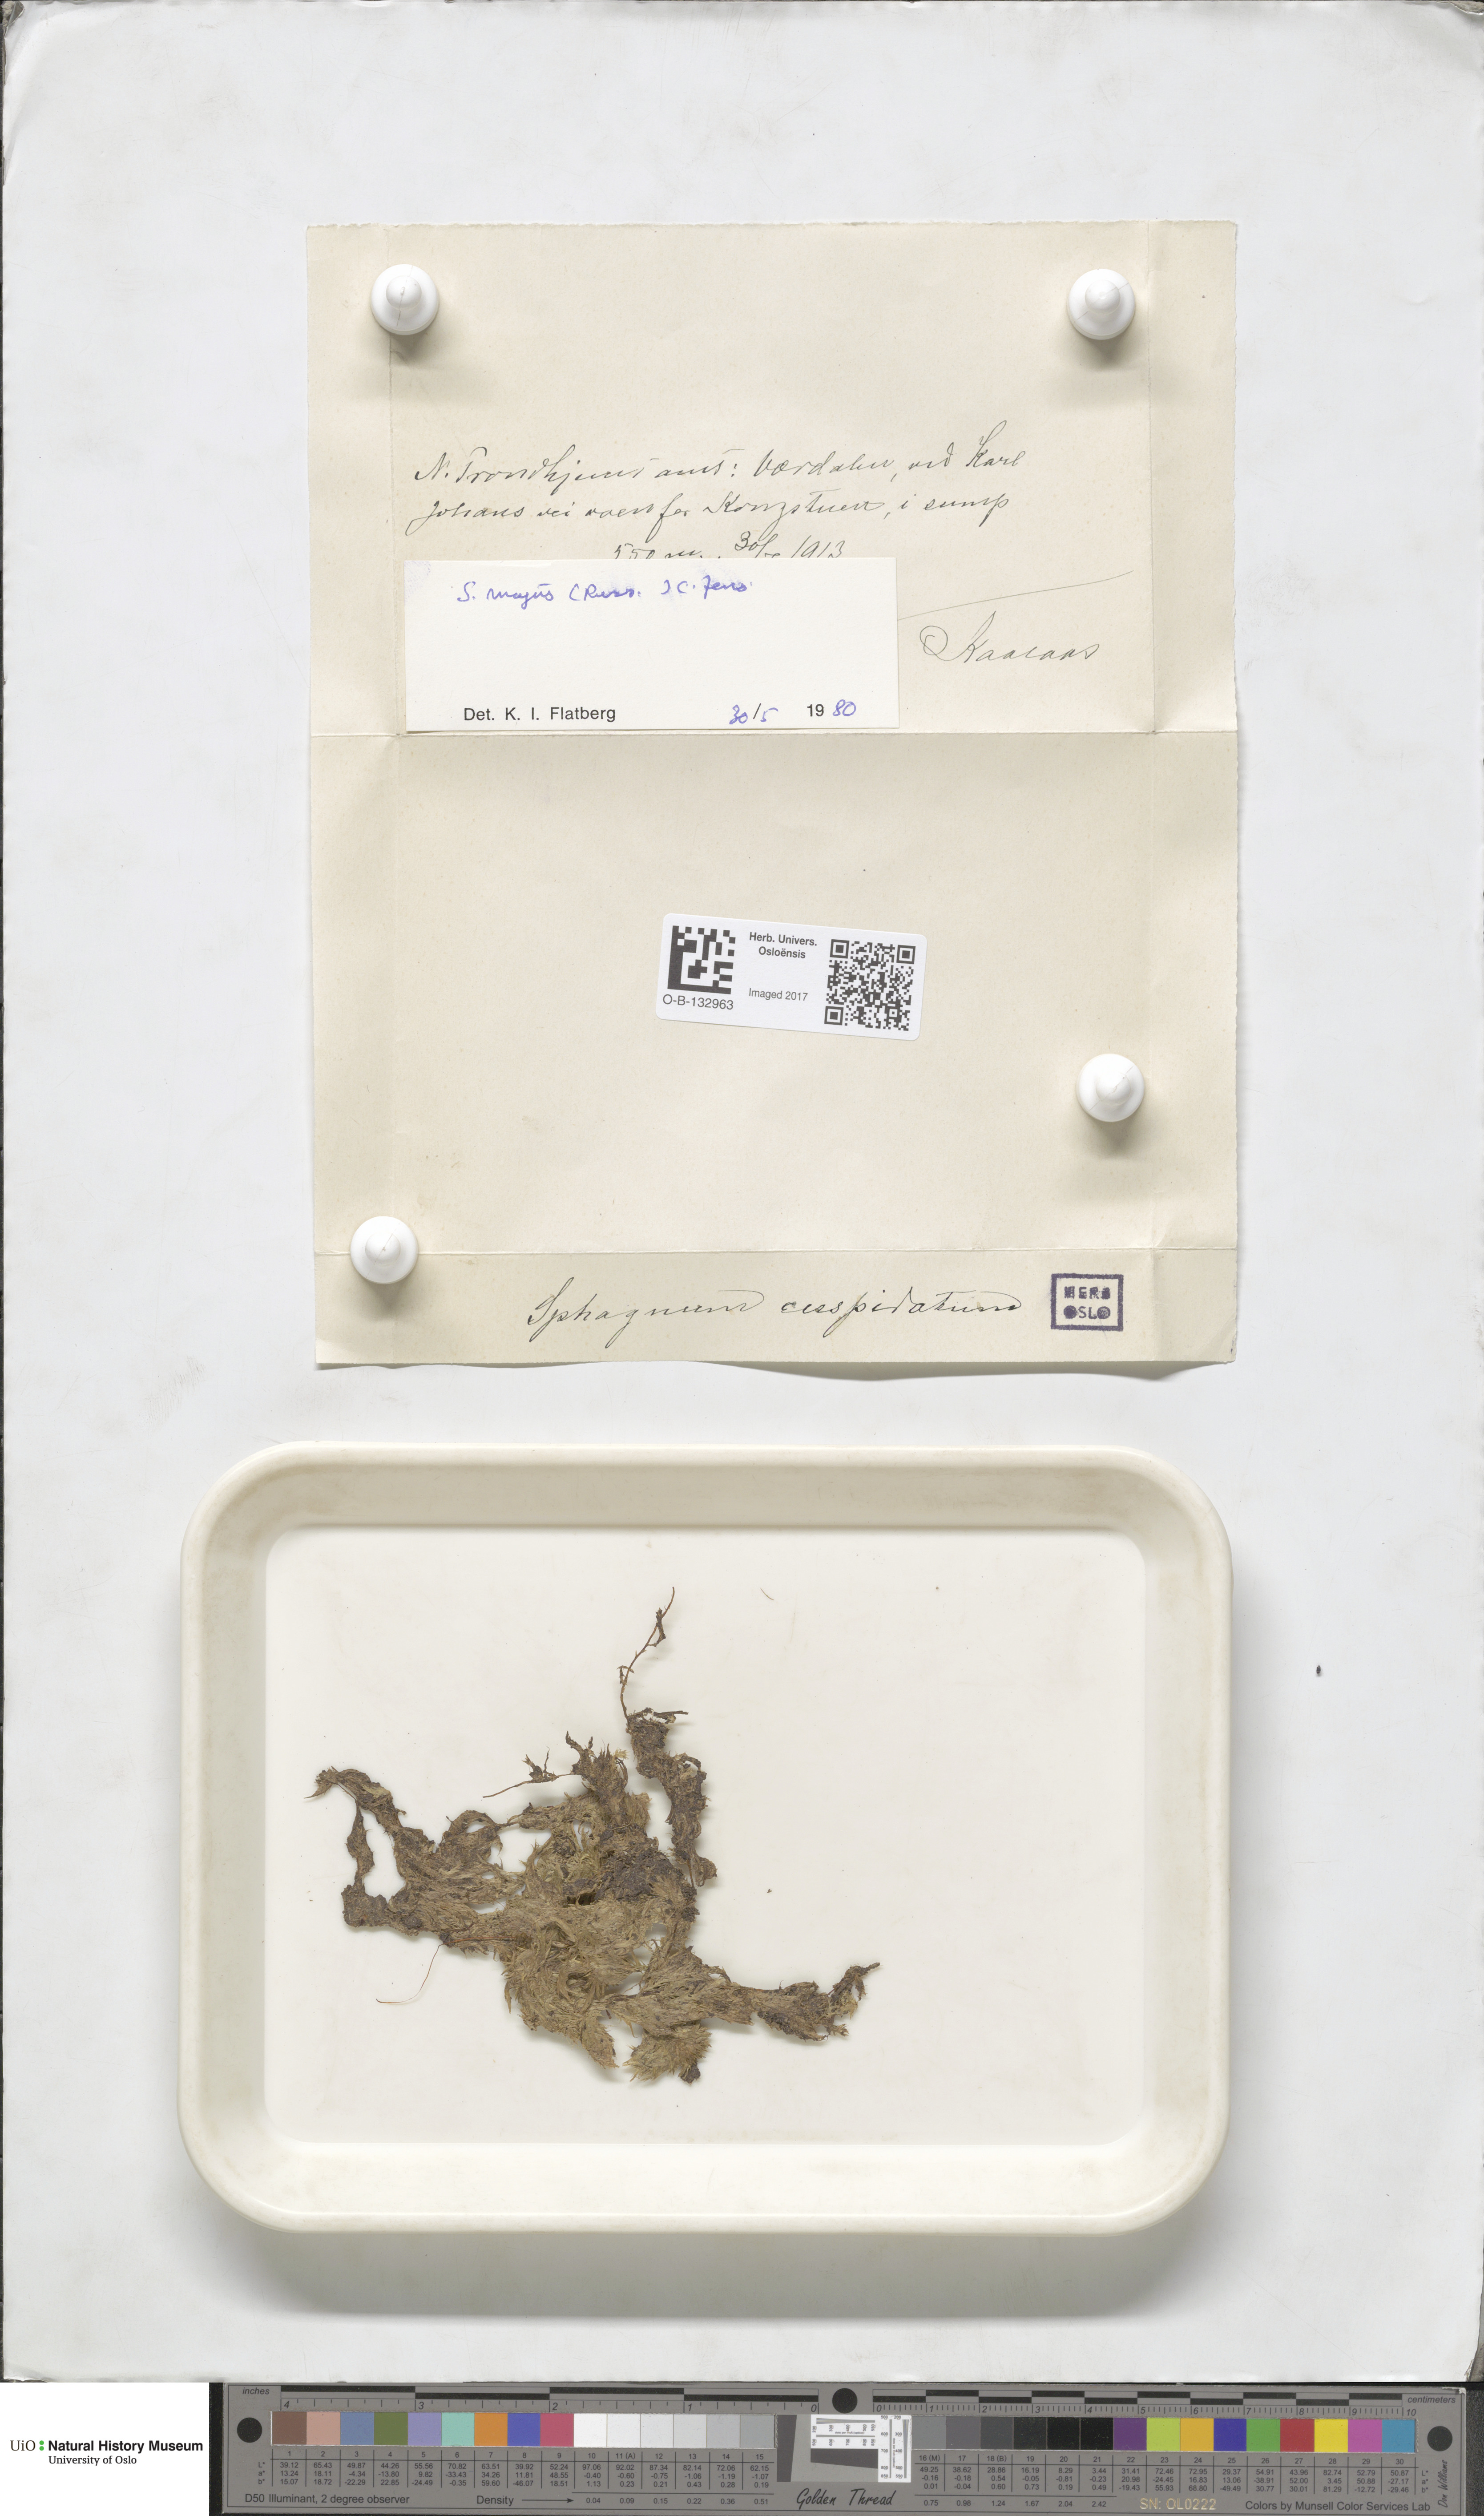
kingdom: Plantae
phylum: Bryophyta
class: Bryopsida
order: Hypnales
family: Brachytheciaceae
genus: Sciuro-hypnum
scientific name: Sciuro-hypnum plumosum
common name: Rusty feather-moss
